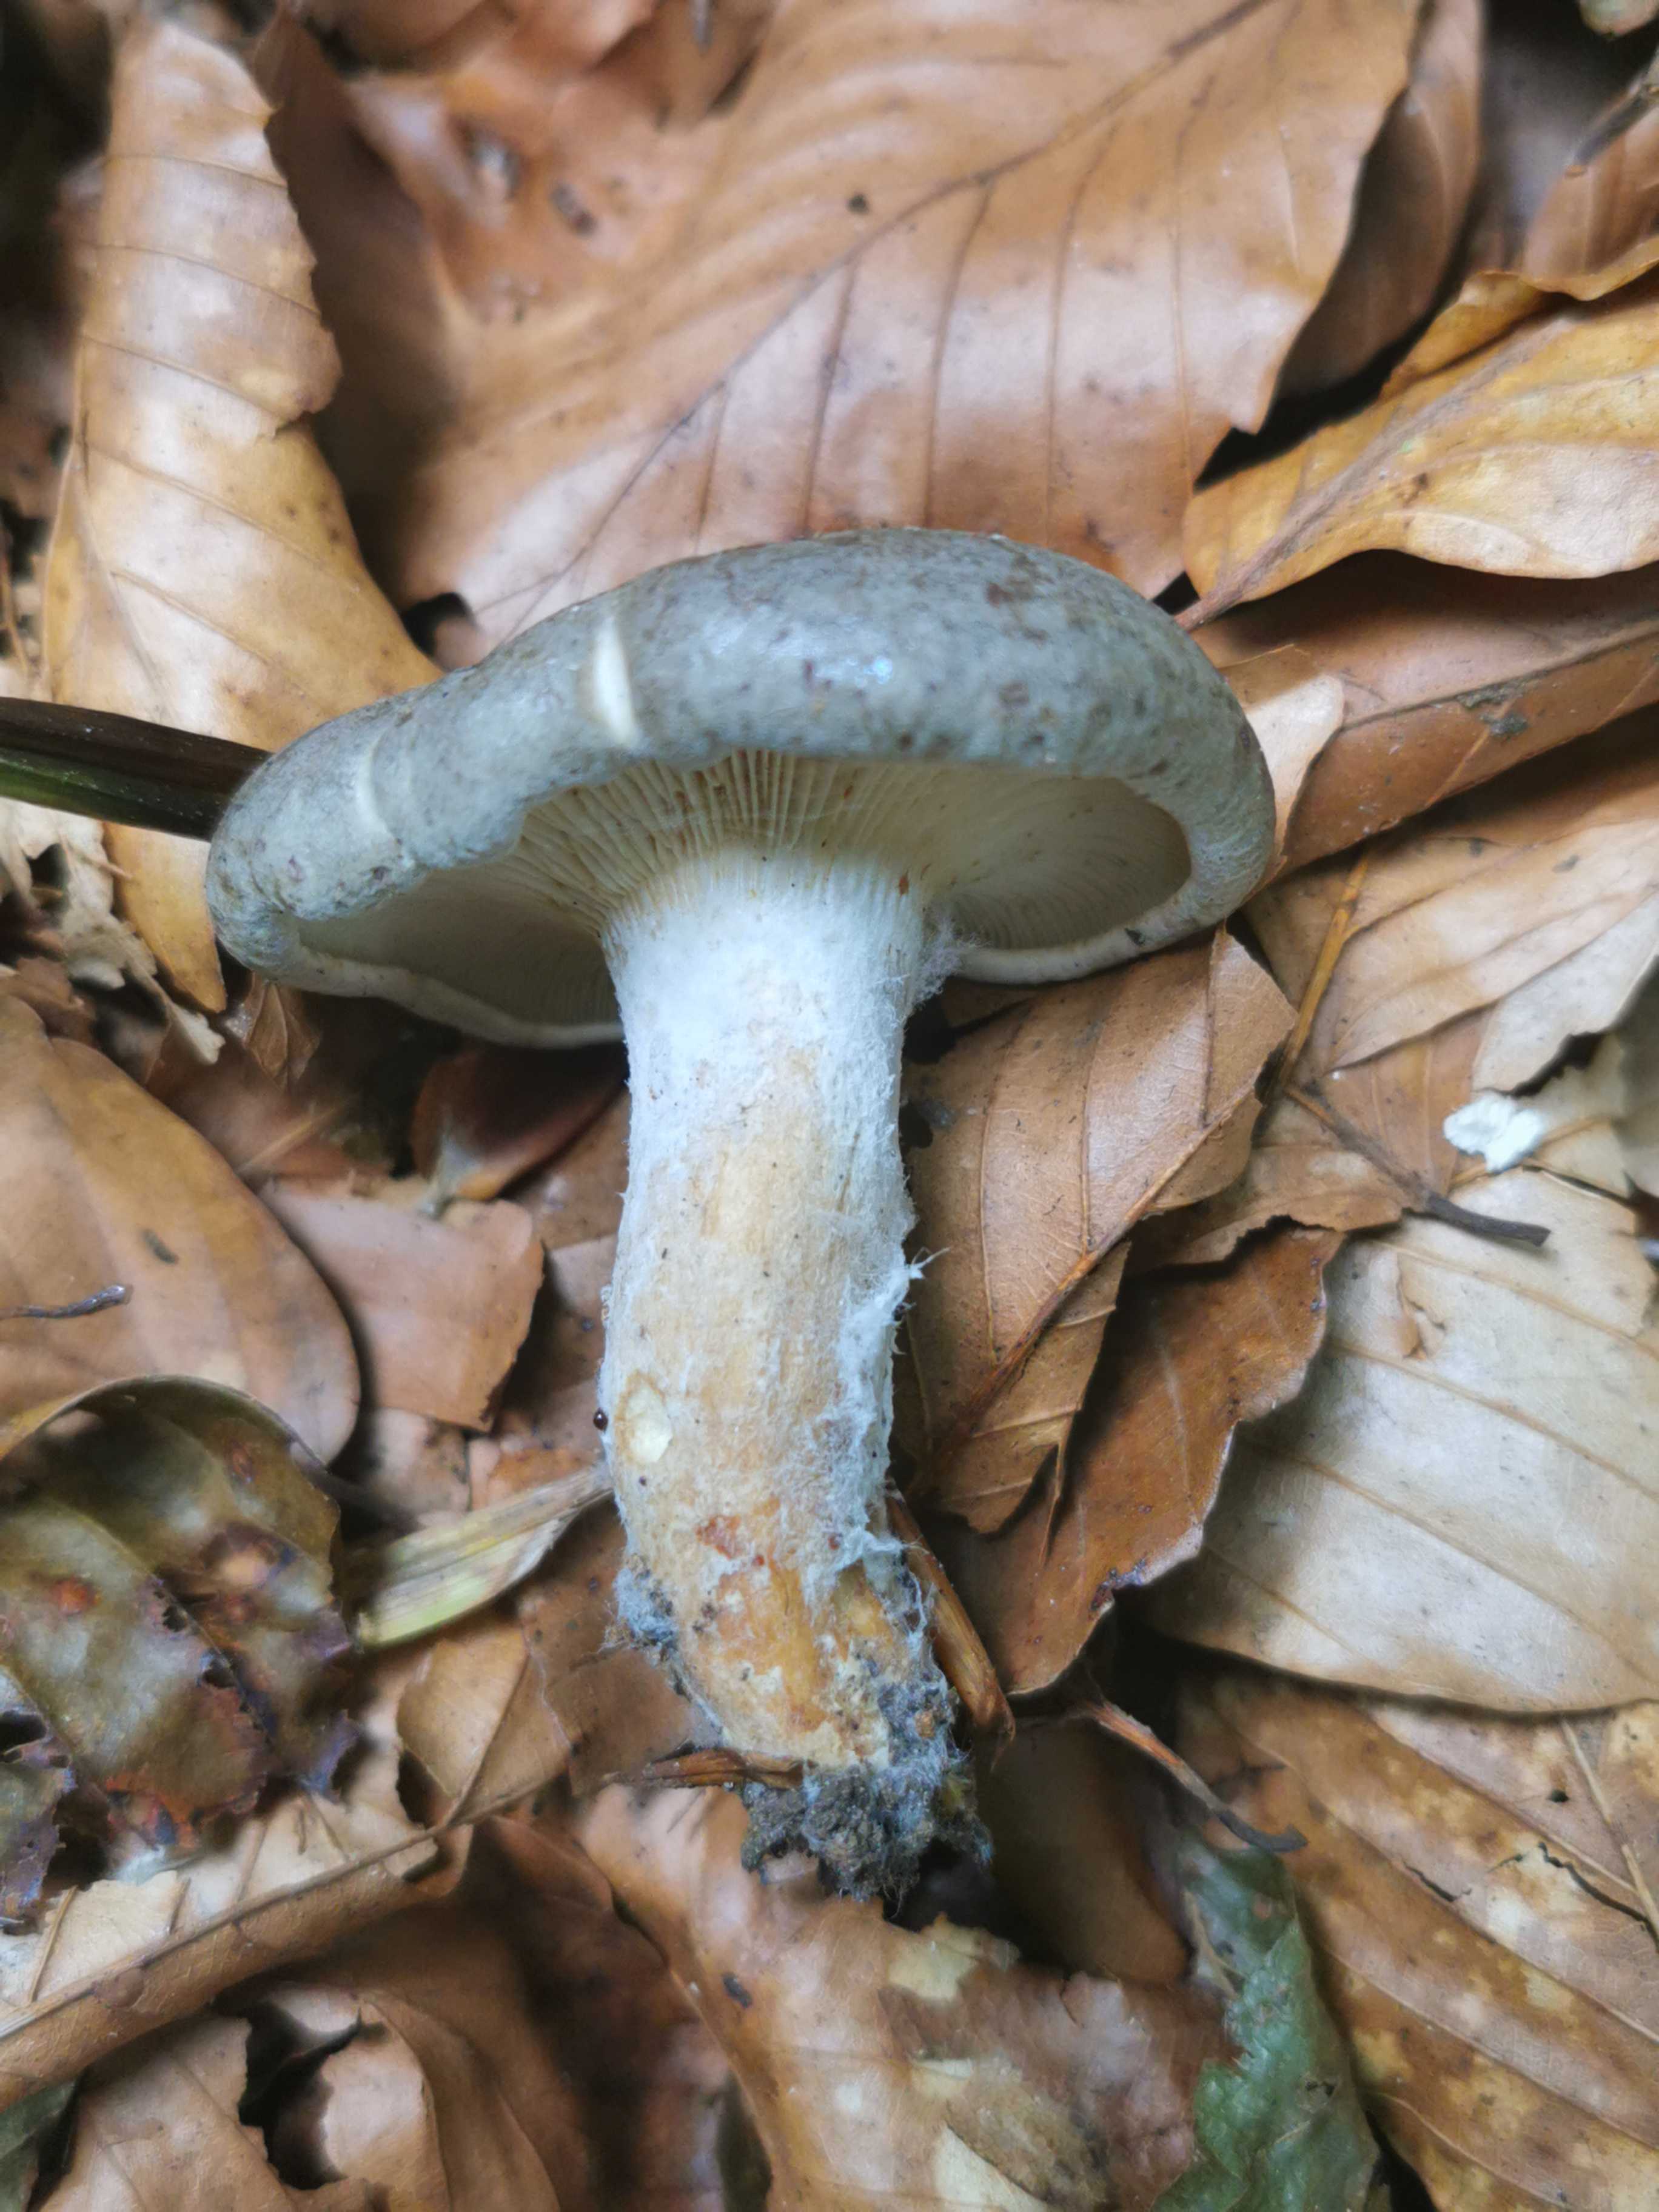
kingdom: Fungi
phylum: Basidiomycota
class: Agaricomycetes
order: Russulales
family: Russulaceae
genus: Lactarius
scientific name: Lactarius blennius
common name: dråbeplettet mælkehat
